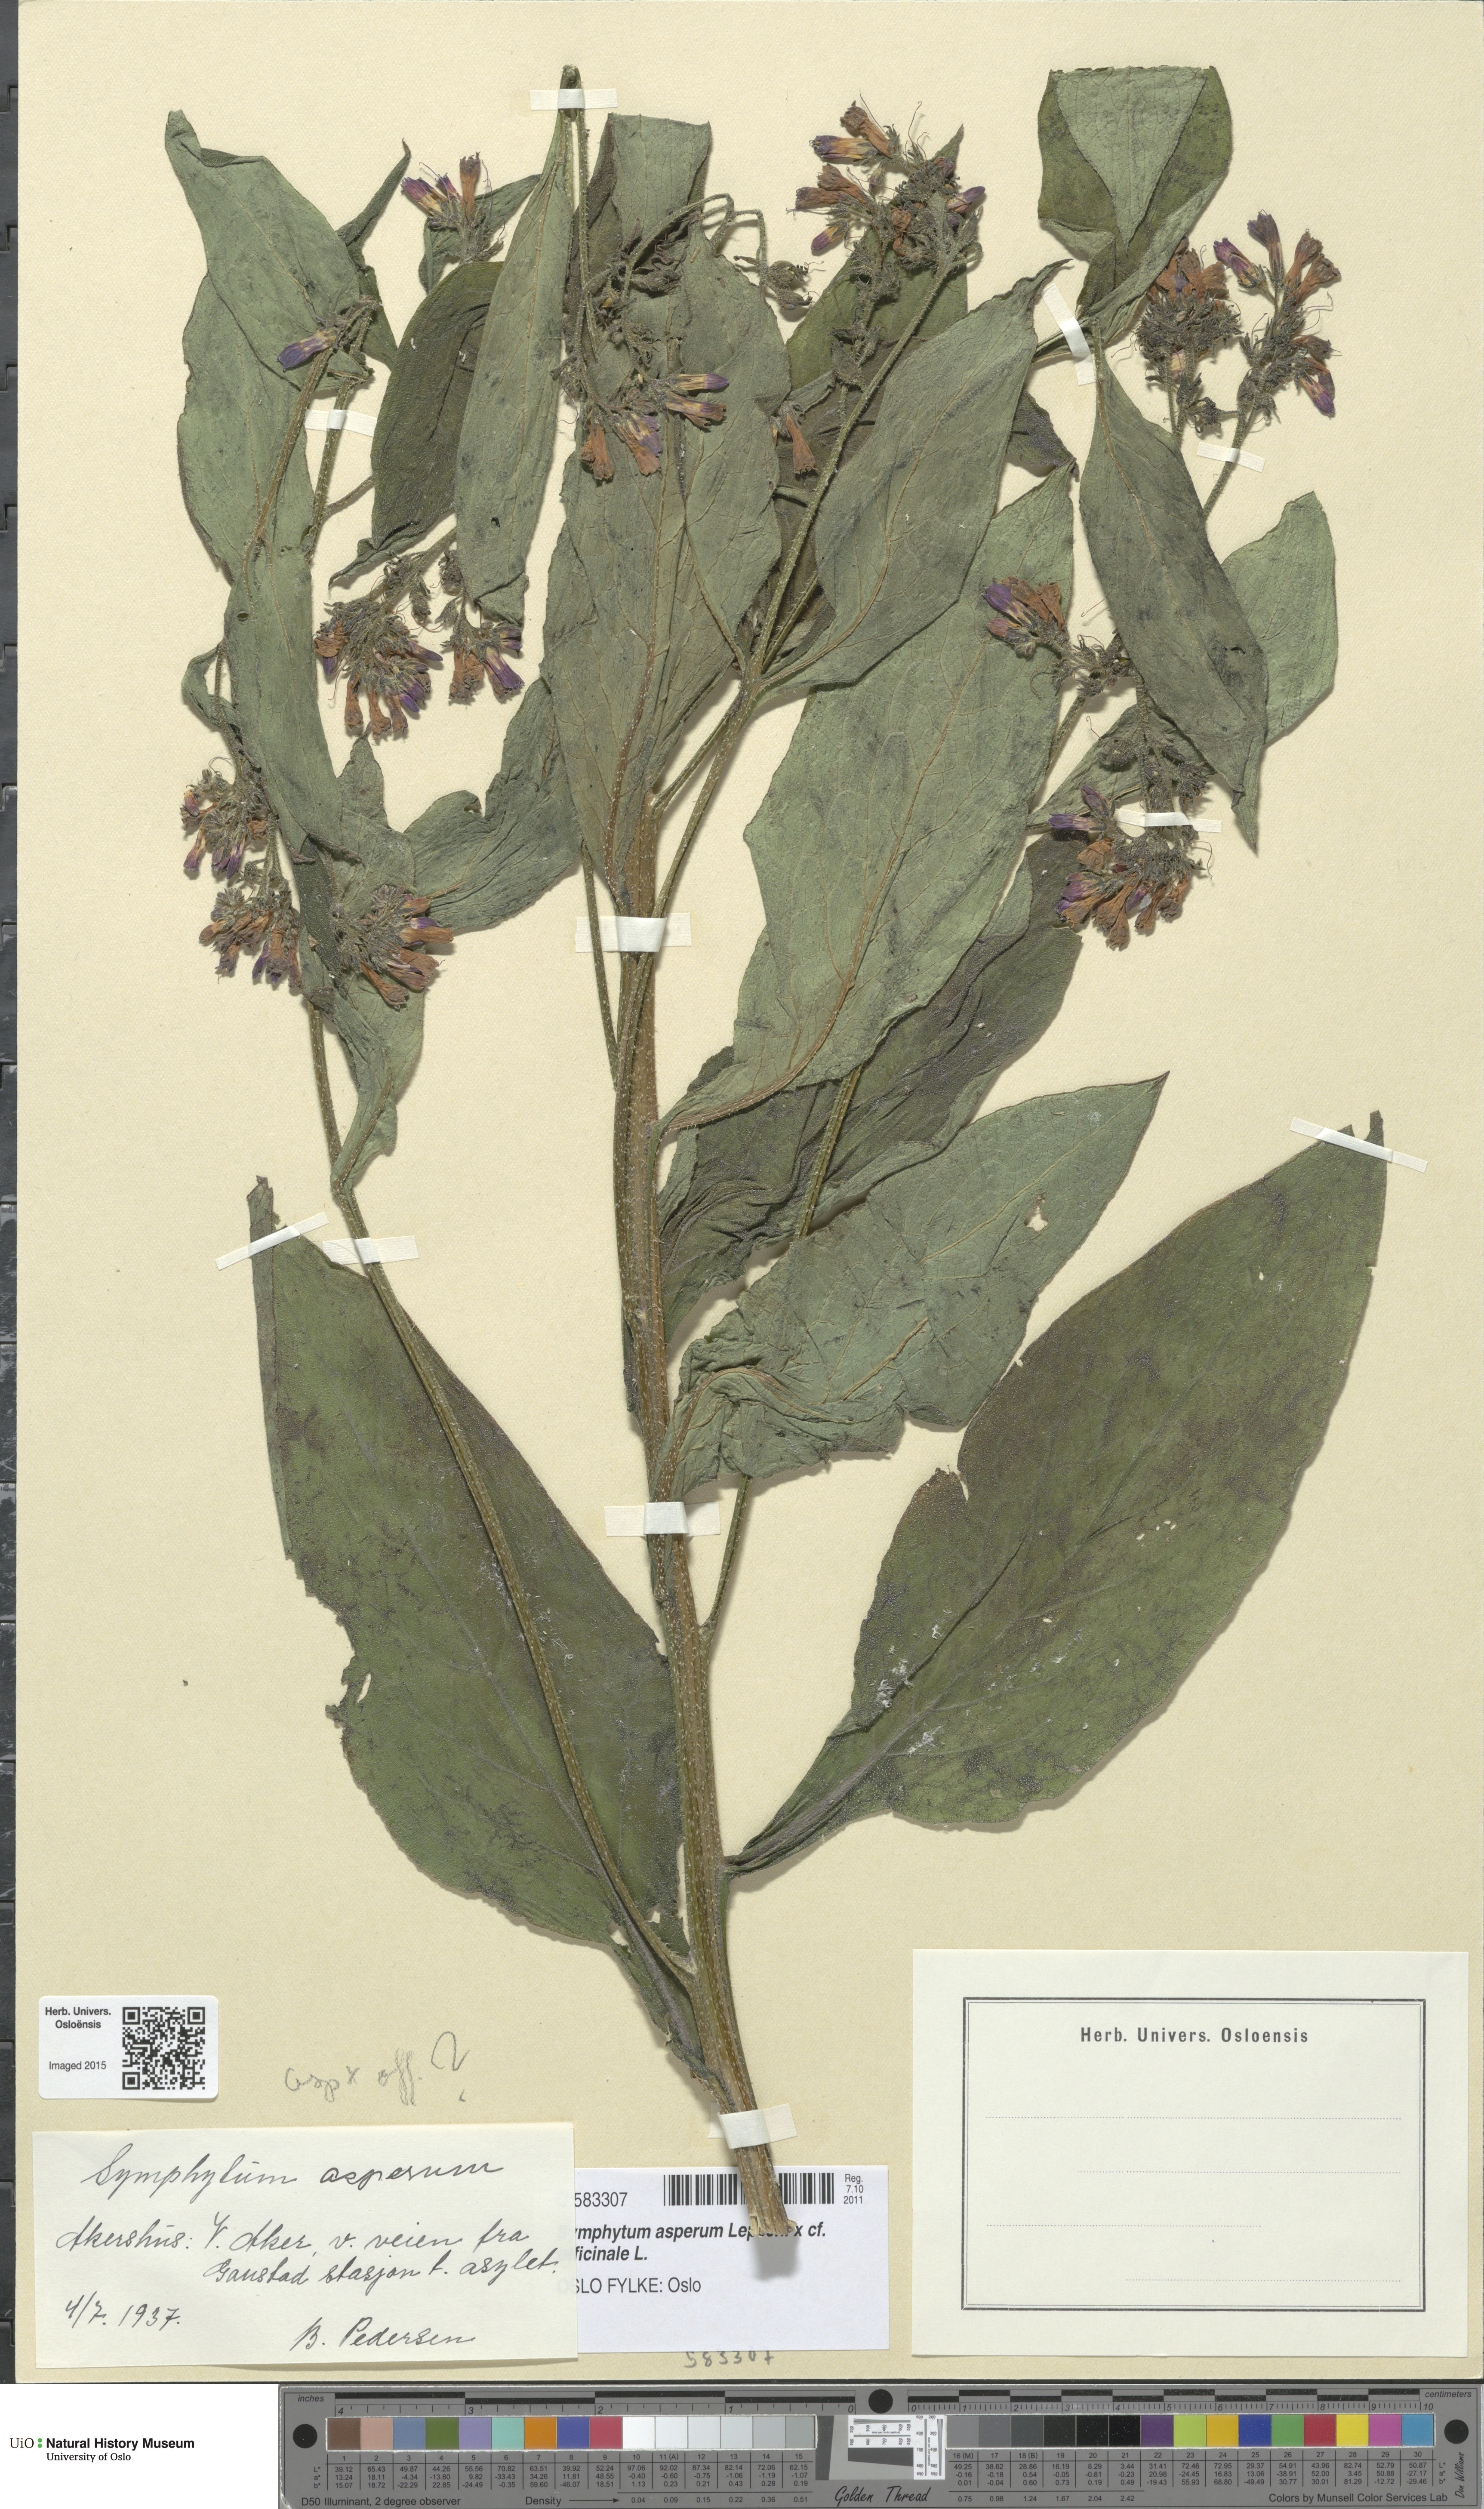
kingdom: Plantae
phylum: Tracheophyta
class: Magnoliopsida
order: Boraginales
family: Boraginaceae
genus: Symphytum
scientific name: Symphytum
